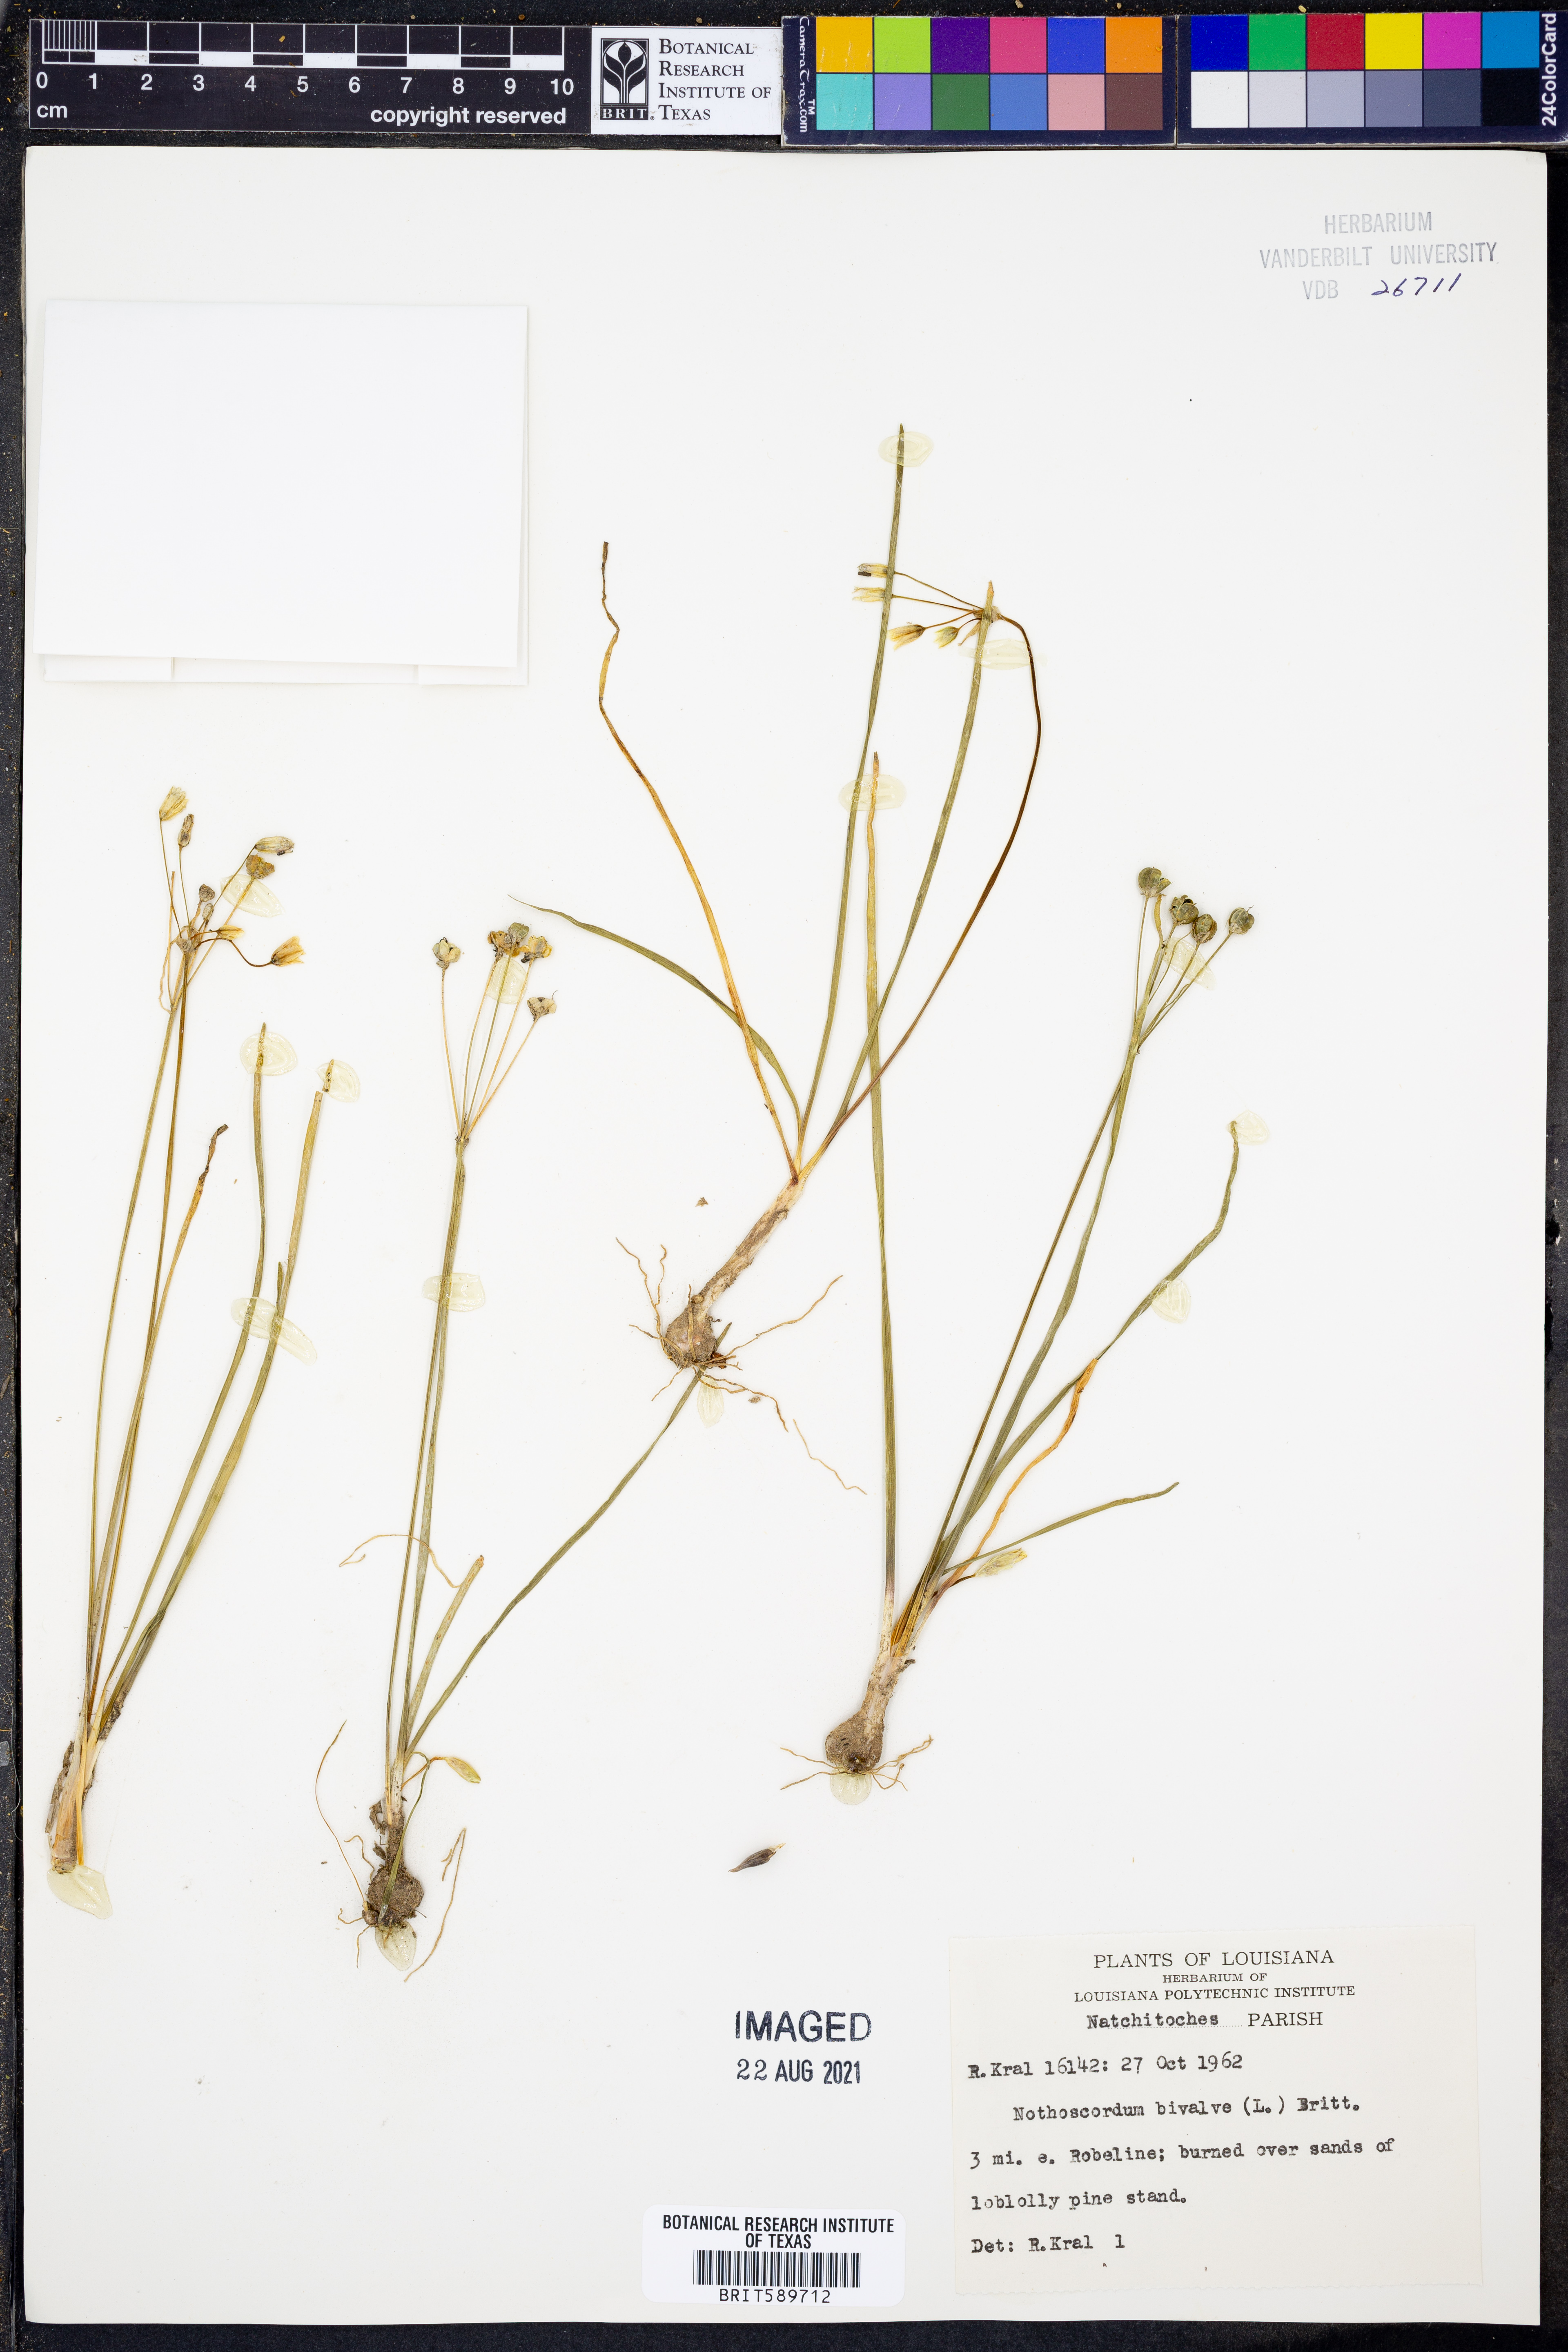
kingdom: Plantae
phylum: Tracheophyta
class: Liliopsida
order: Asparagales
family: Amaryllidaceae
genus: Nothoscordum
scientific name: Nothoscordum bivalve
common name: Crow-poison
